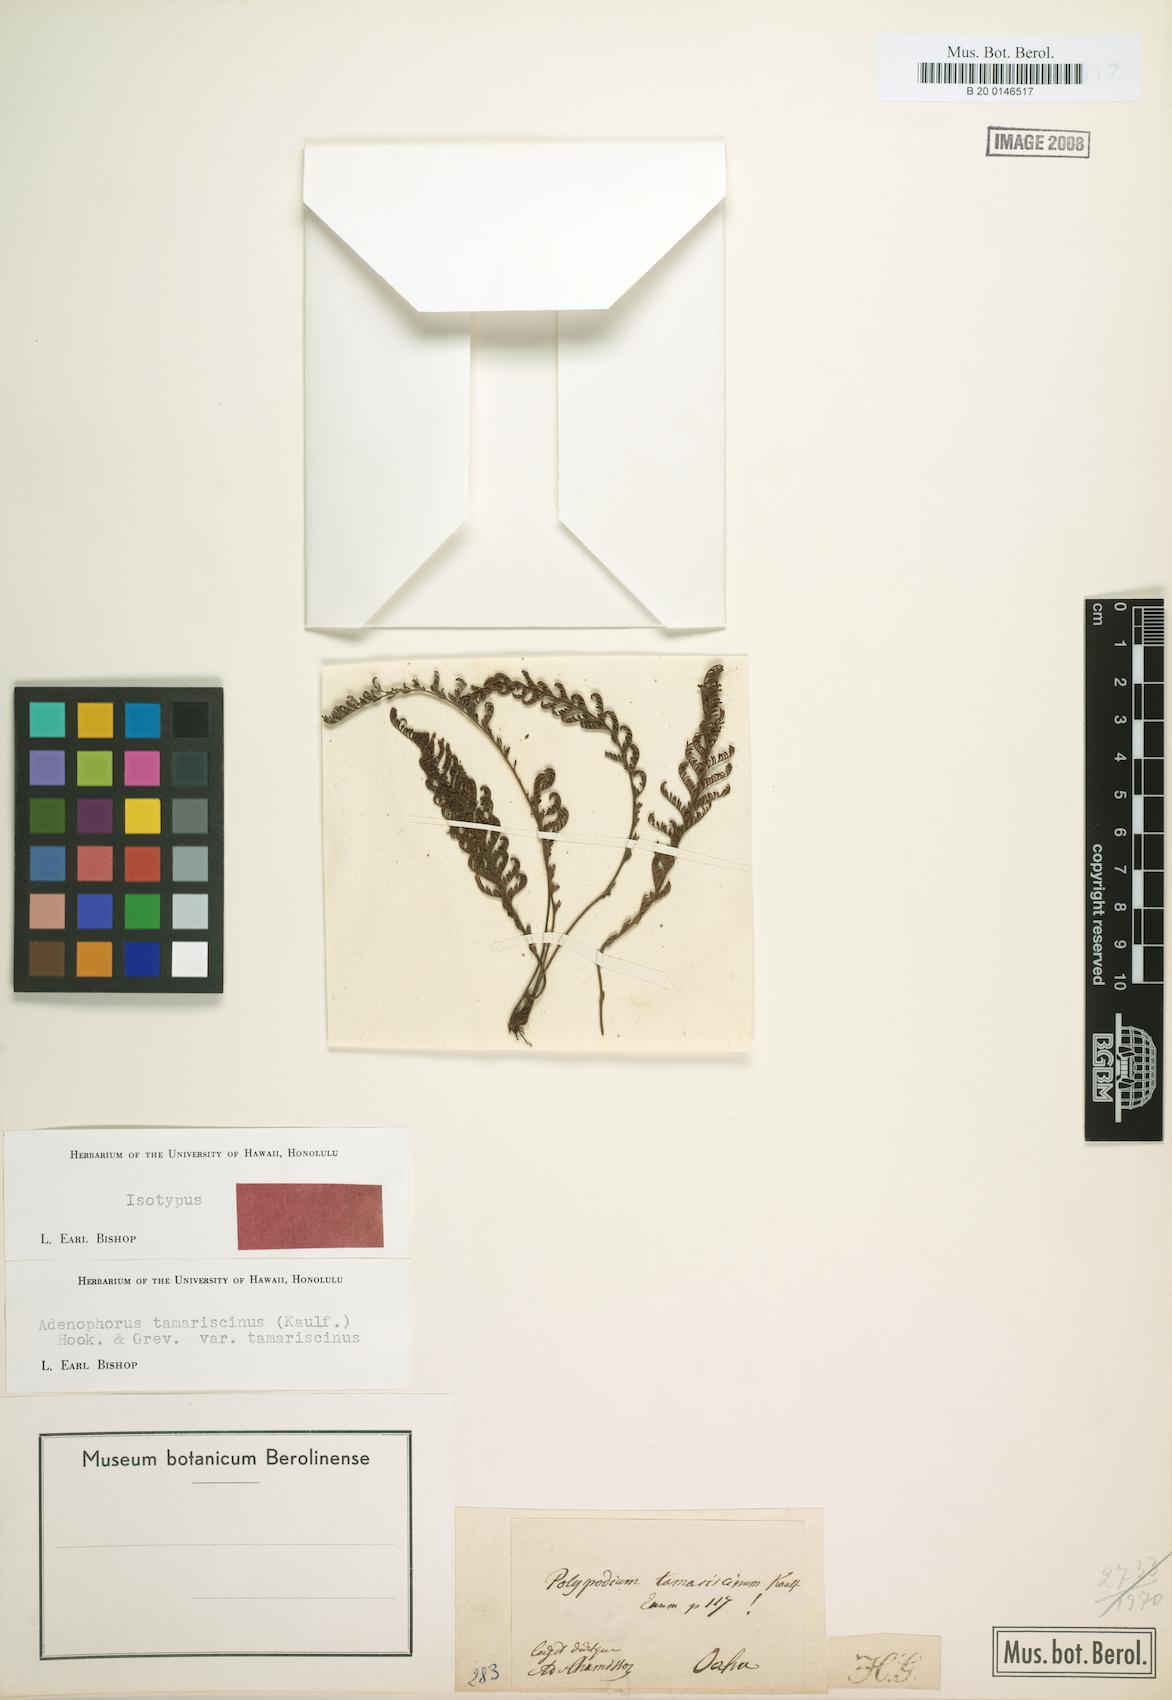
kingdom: Plantae
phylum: Tracheophyta
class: Polypodiopsida
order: Polypodiales
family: Polypodiaceae
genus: Adenophorus
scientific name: Adenophorus tamariscinus
